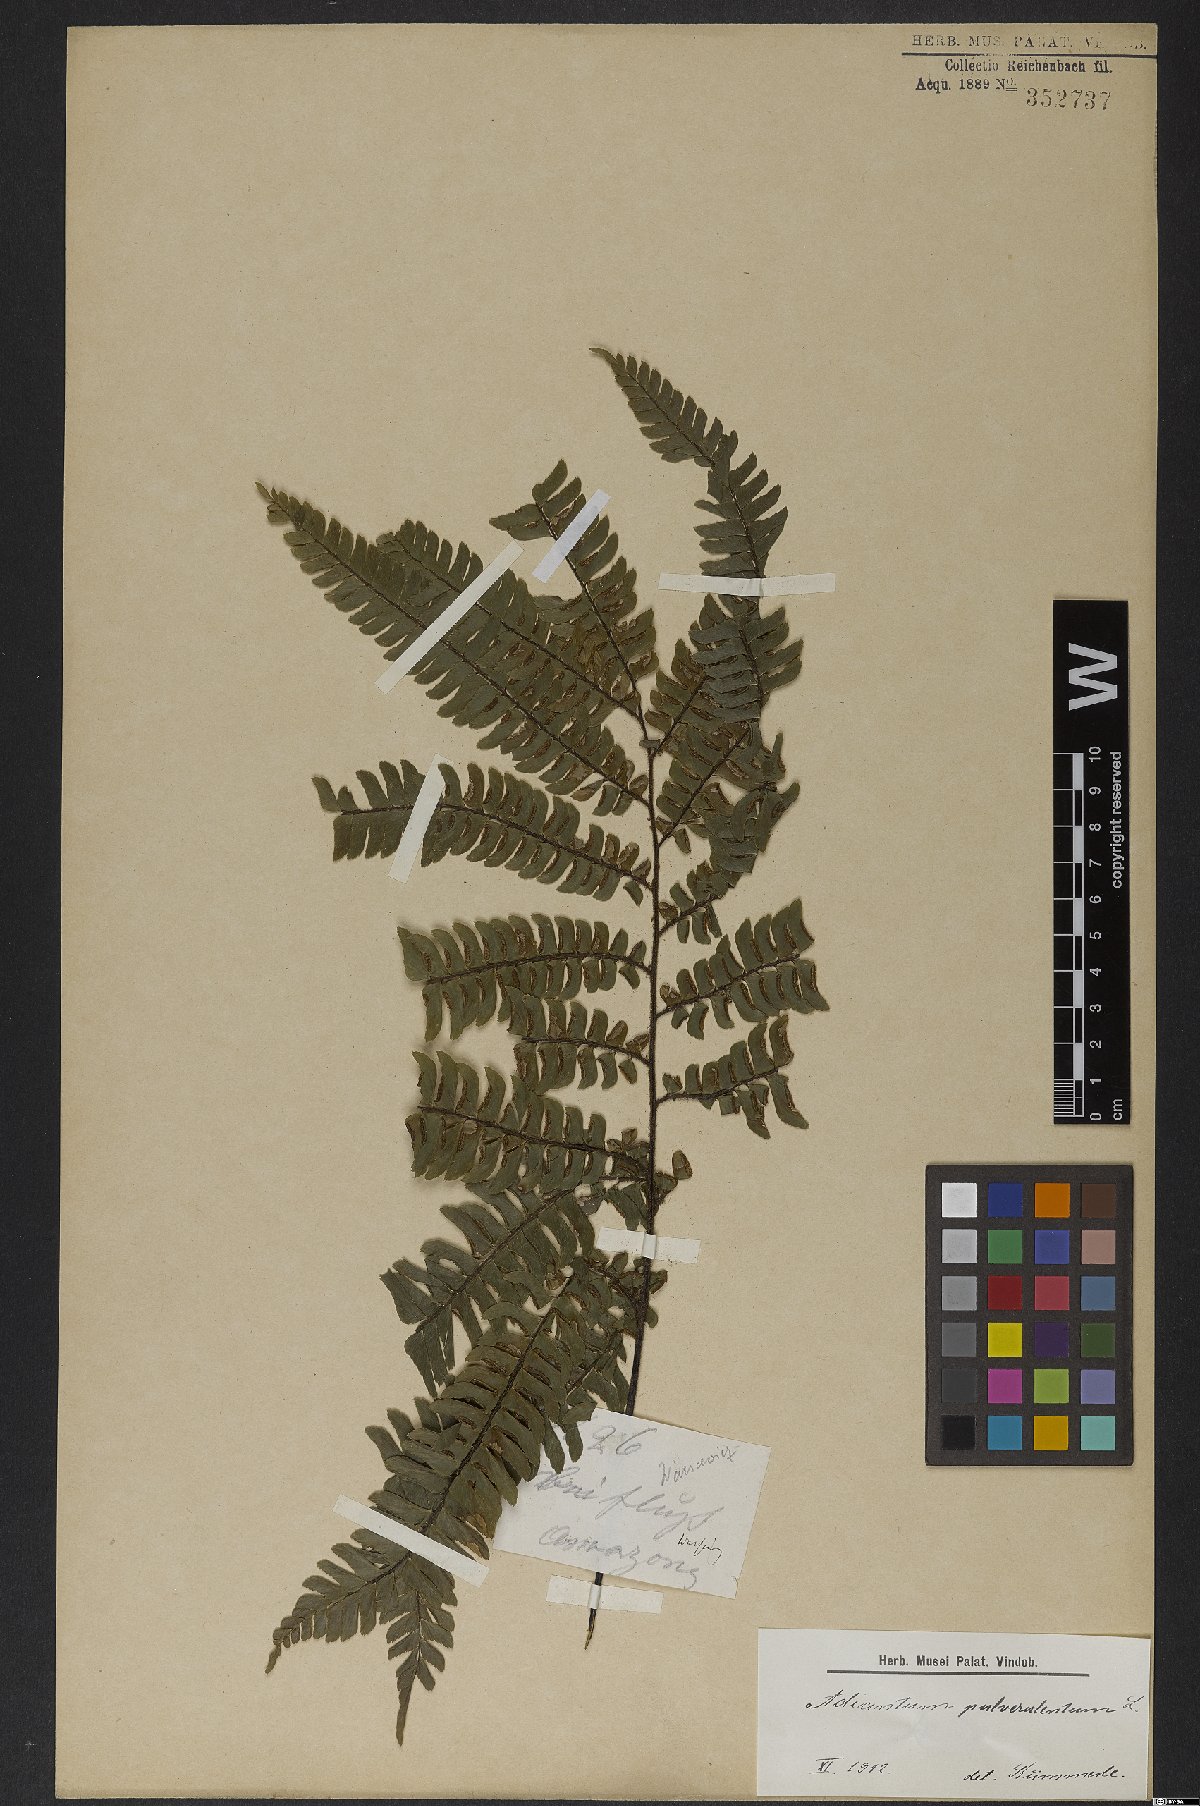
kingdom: Plantae
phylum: Tracheophyta
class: Polypodiopsida
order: Polypodiales
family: Pteridaceae
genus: Adiantum
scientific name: Adiantum pulverulentum
